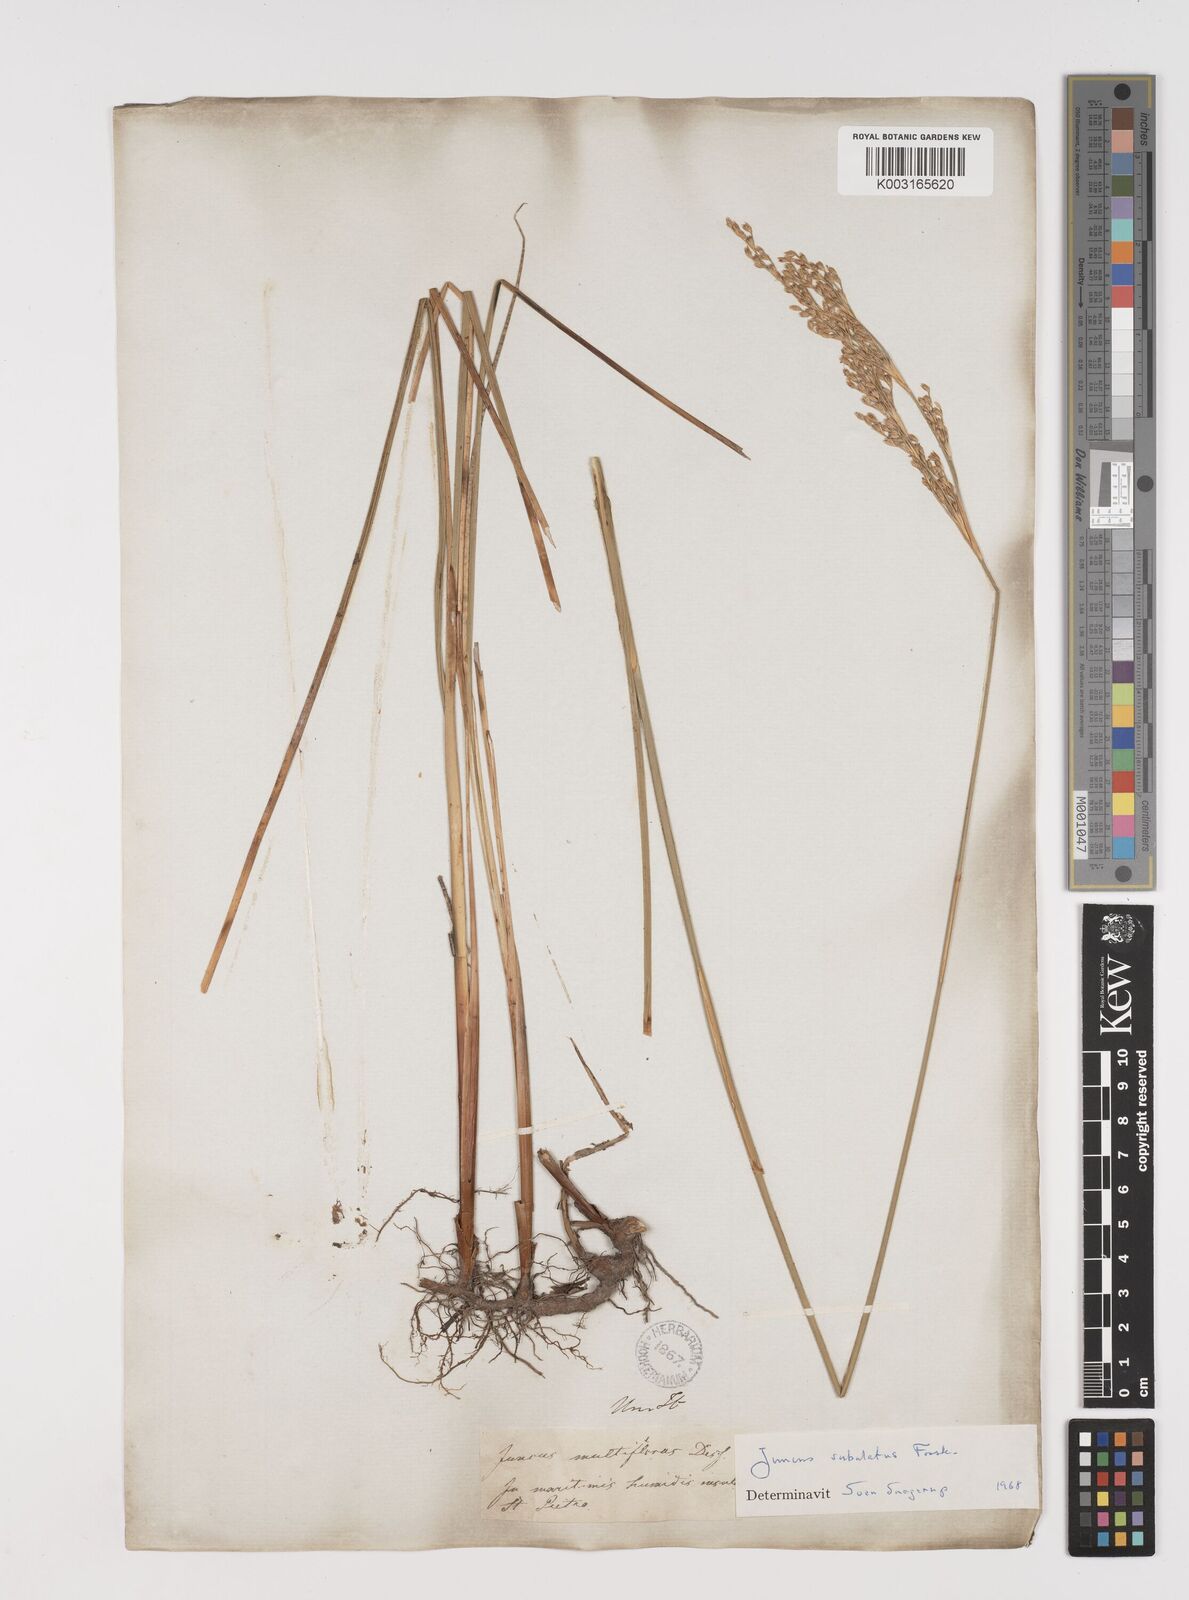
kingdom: Plantae
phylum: Tracheophyta
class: Liliopsida
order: Poales
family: Juncaceae
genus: Juncus
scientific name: Juncus subulatus
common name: Somerset rush
